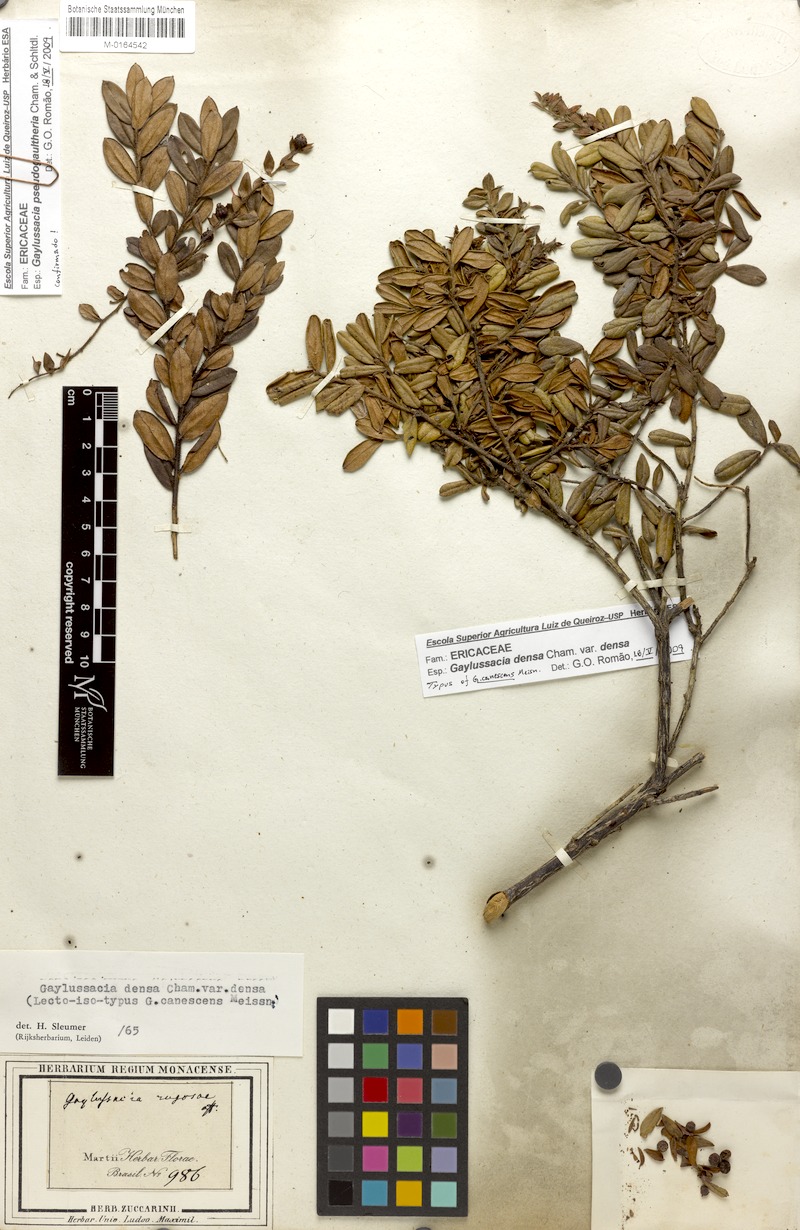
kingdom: Plantae
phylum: Tracheophyta
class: Magnoliopsida
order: Ericales
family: Ericaceae
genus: Gaylussacia
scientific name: Gaylussacia densa
